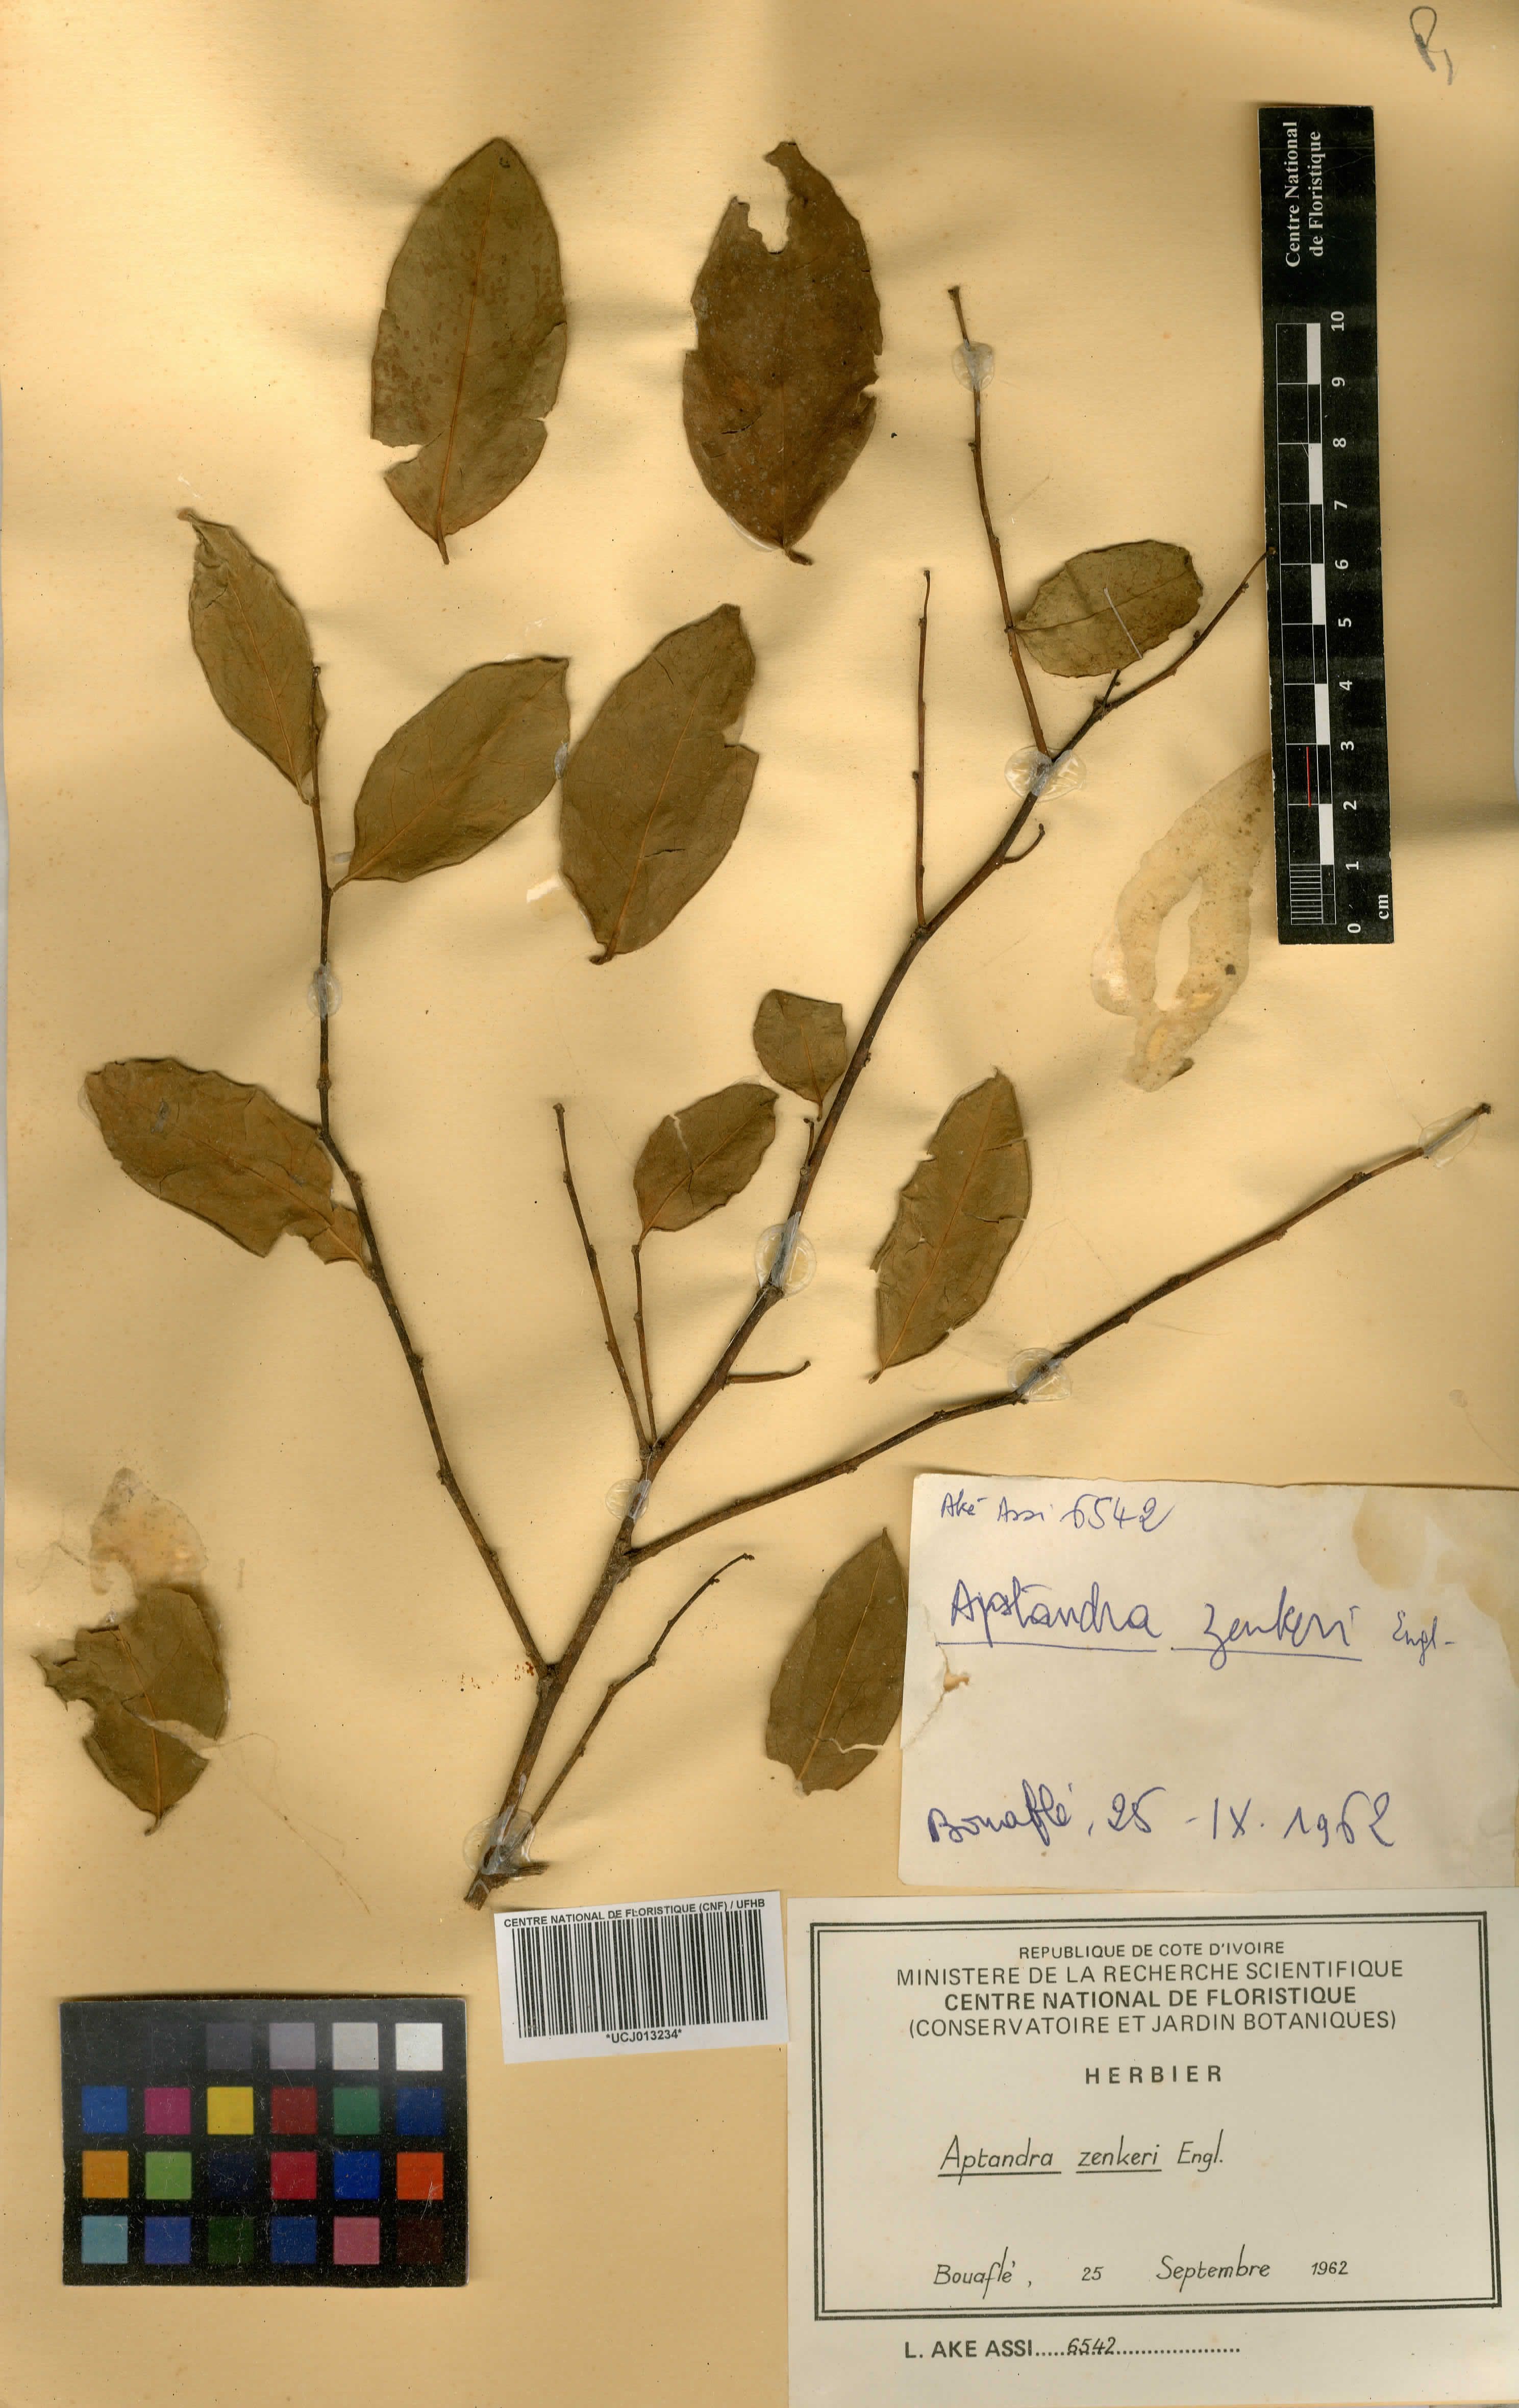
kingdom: Plantae
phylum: Tracheophyta
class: Magnoliopsida
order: Santalales
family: Aptandraceae
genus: Aptandra
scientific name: Aptandra zenkeri
